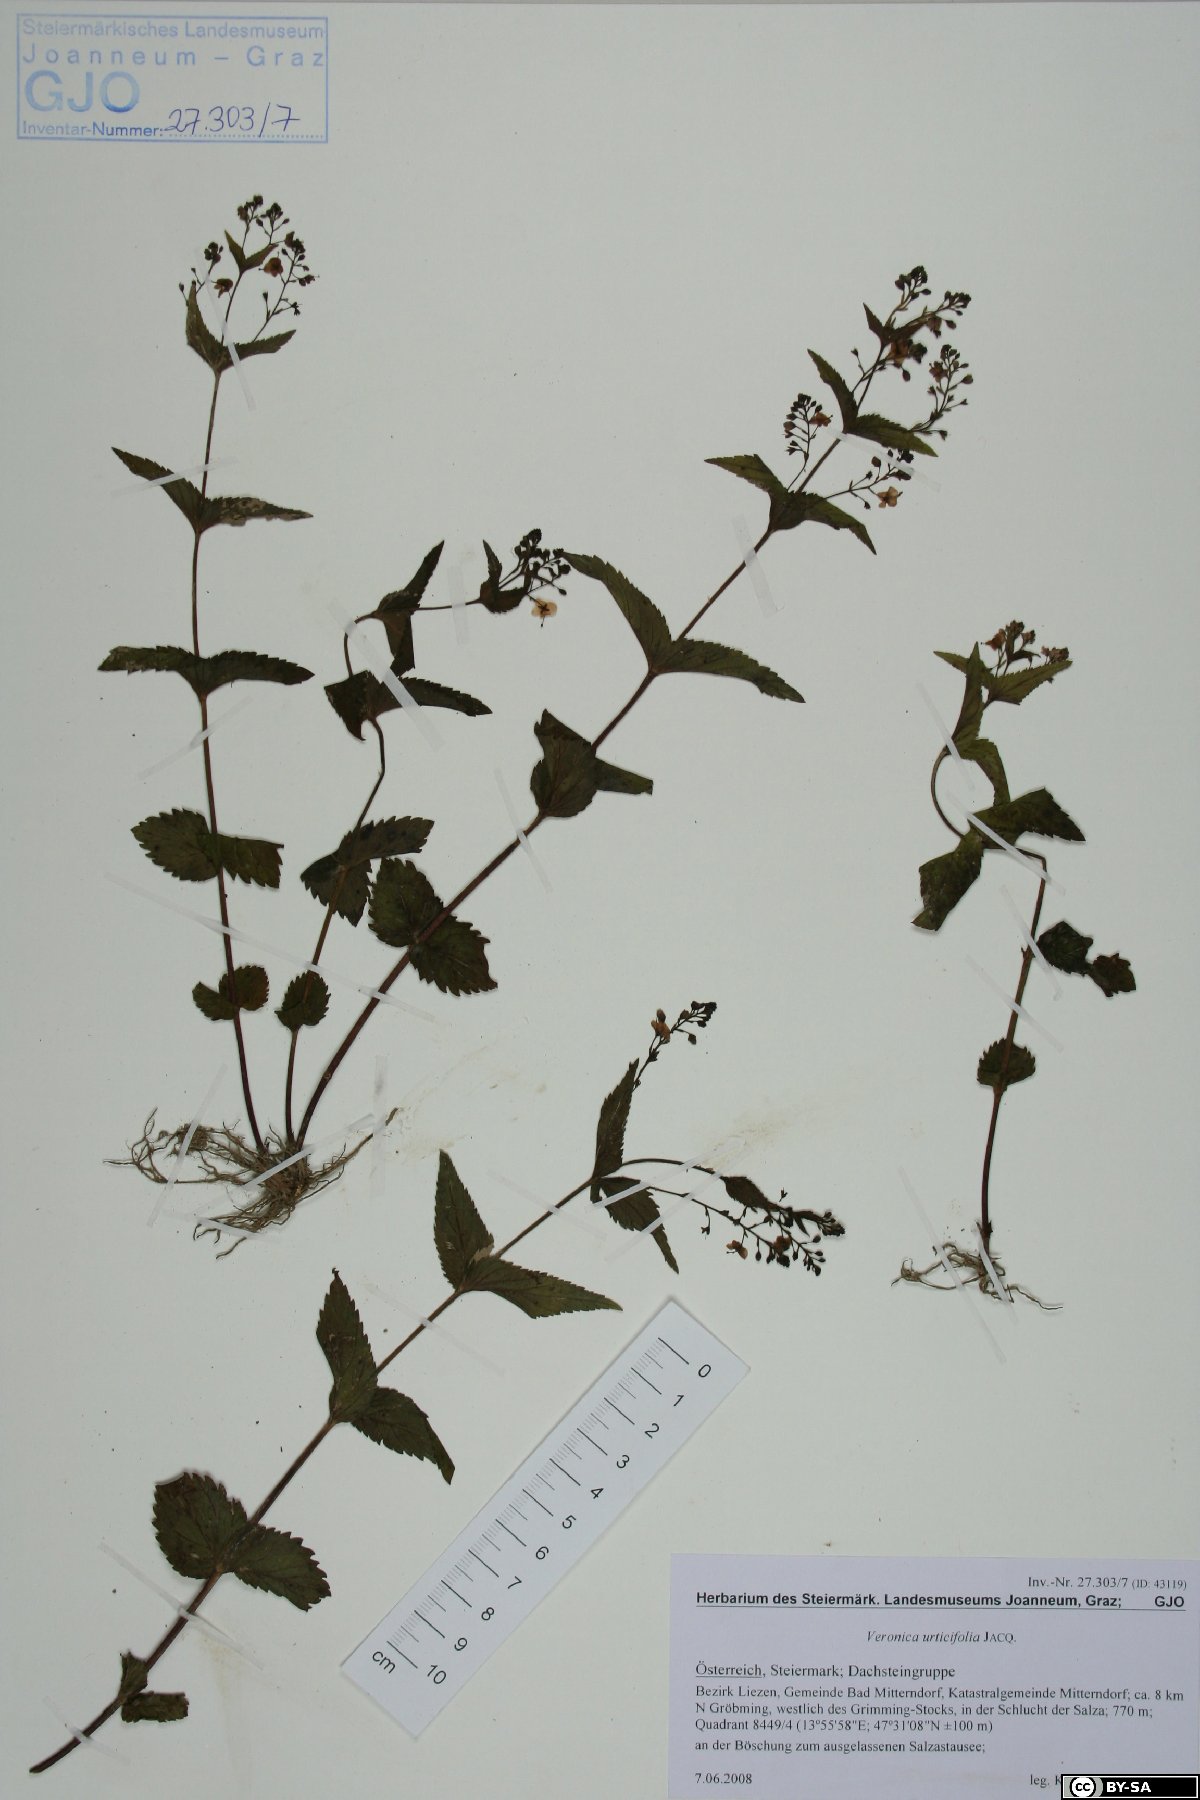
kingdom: Plantae
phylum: Tracheophyta
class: Magnoliopsida
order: Lamiales
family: Plantaginaceae
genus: Veronica
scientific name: Veronica urticifolia
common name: Nettle-leaf speedwell
